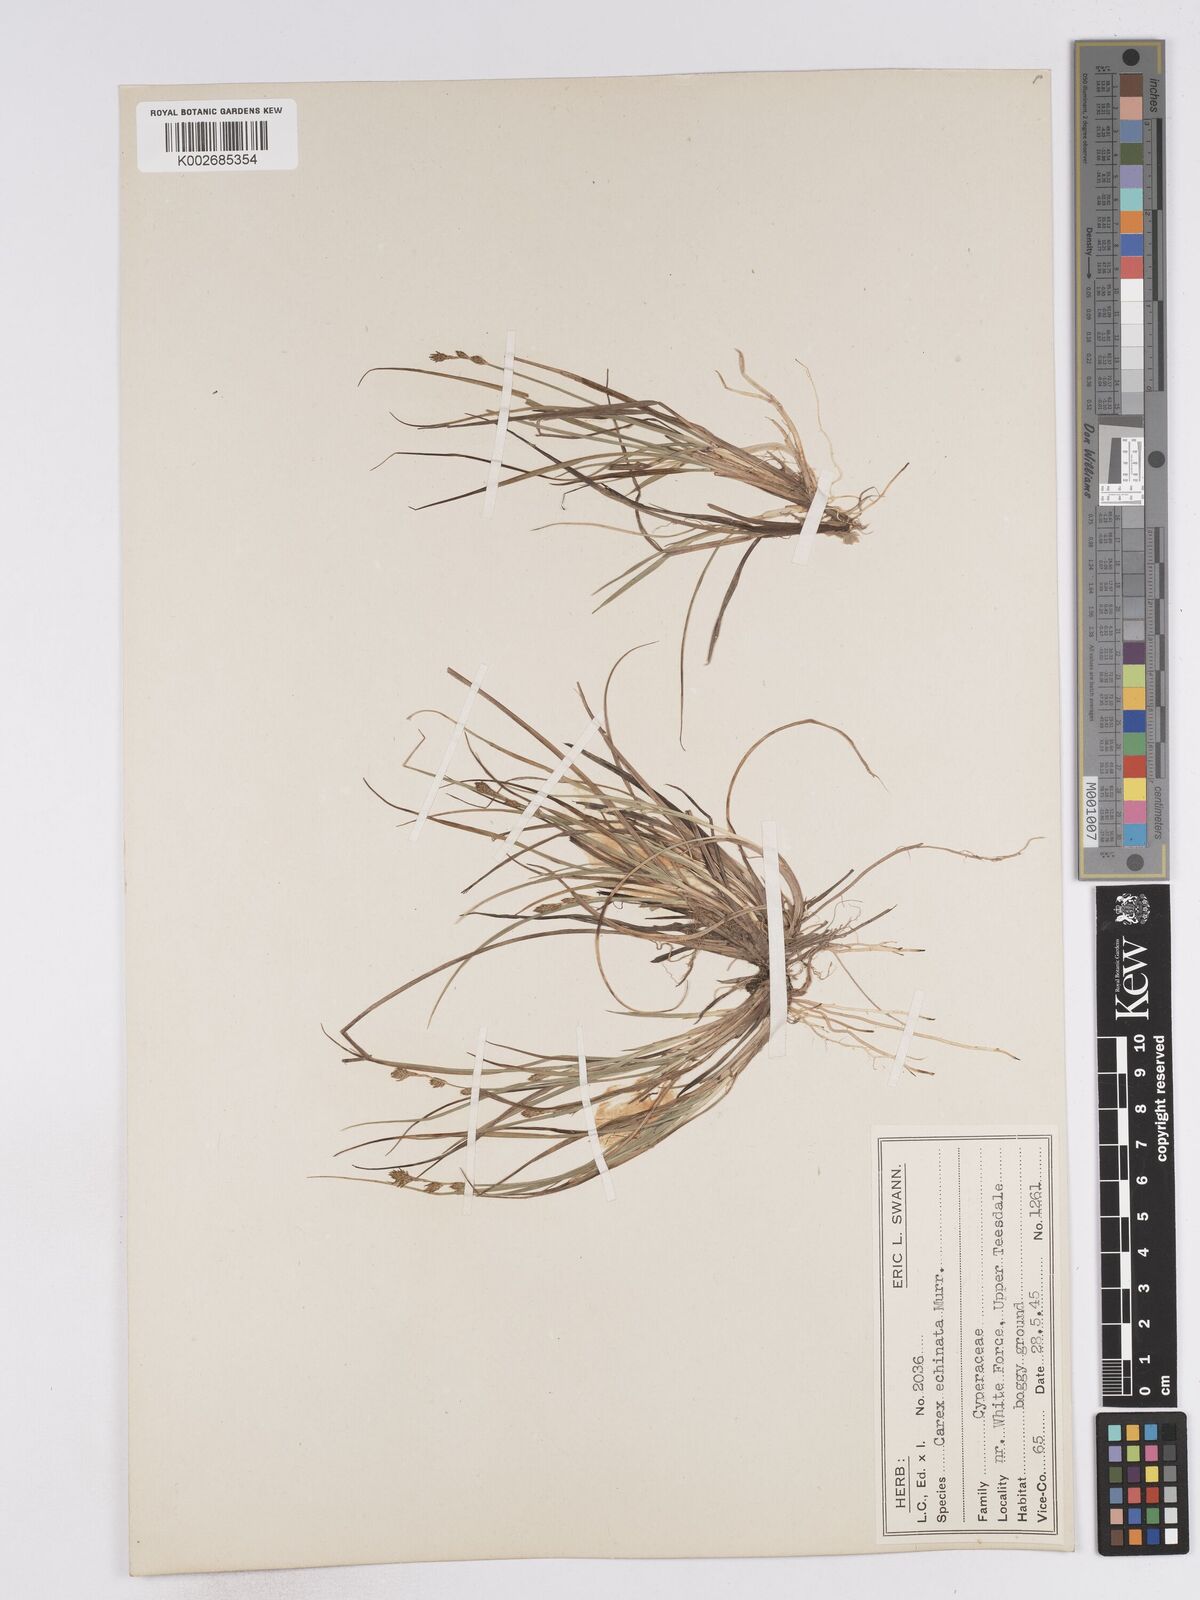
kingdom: Plantae
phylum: Tracheophyta
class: Liliopsida
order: Poales
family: Cyperaceae
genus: Carex
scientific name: Carex echinata
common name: Star sedge
